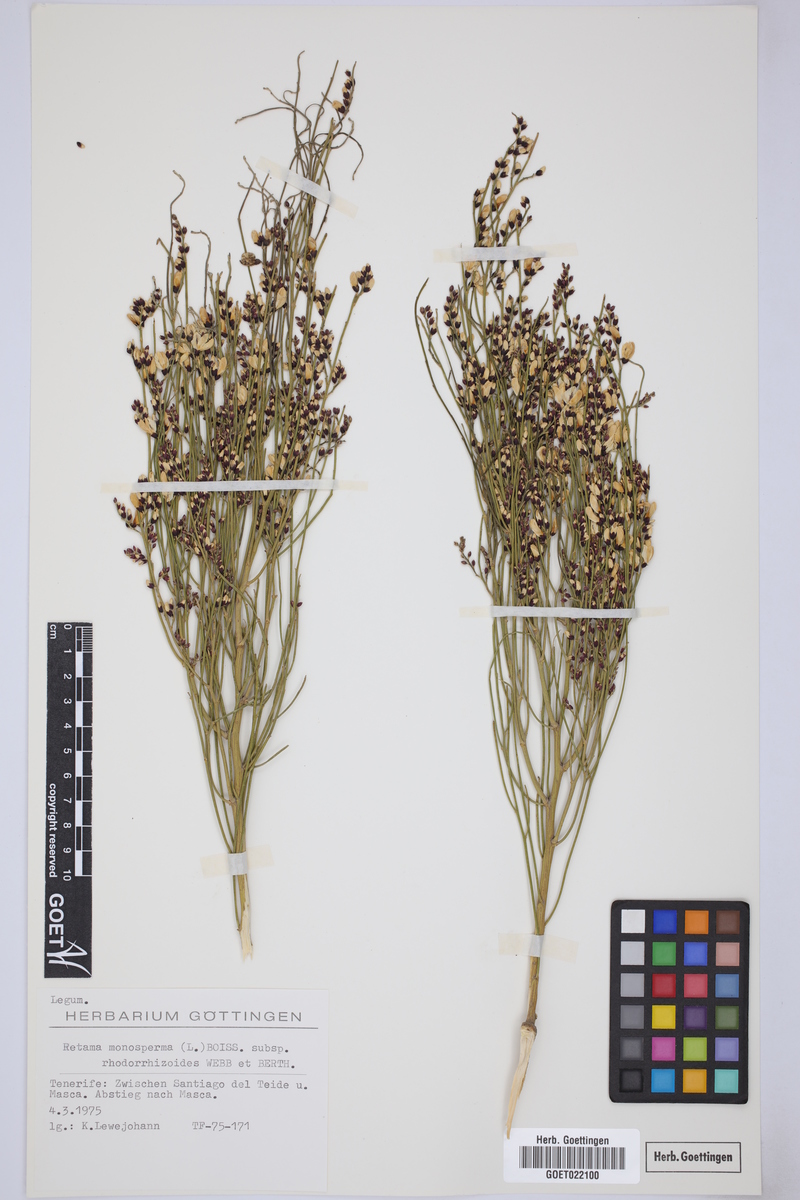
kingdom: Plantae
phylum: Tracheophyta
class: Magnoliopsida
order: Fabales
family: Fabaceae
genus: Retama
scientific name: Retama monosperma
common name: Bridal broom
